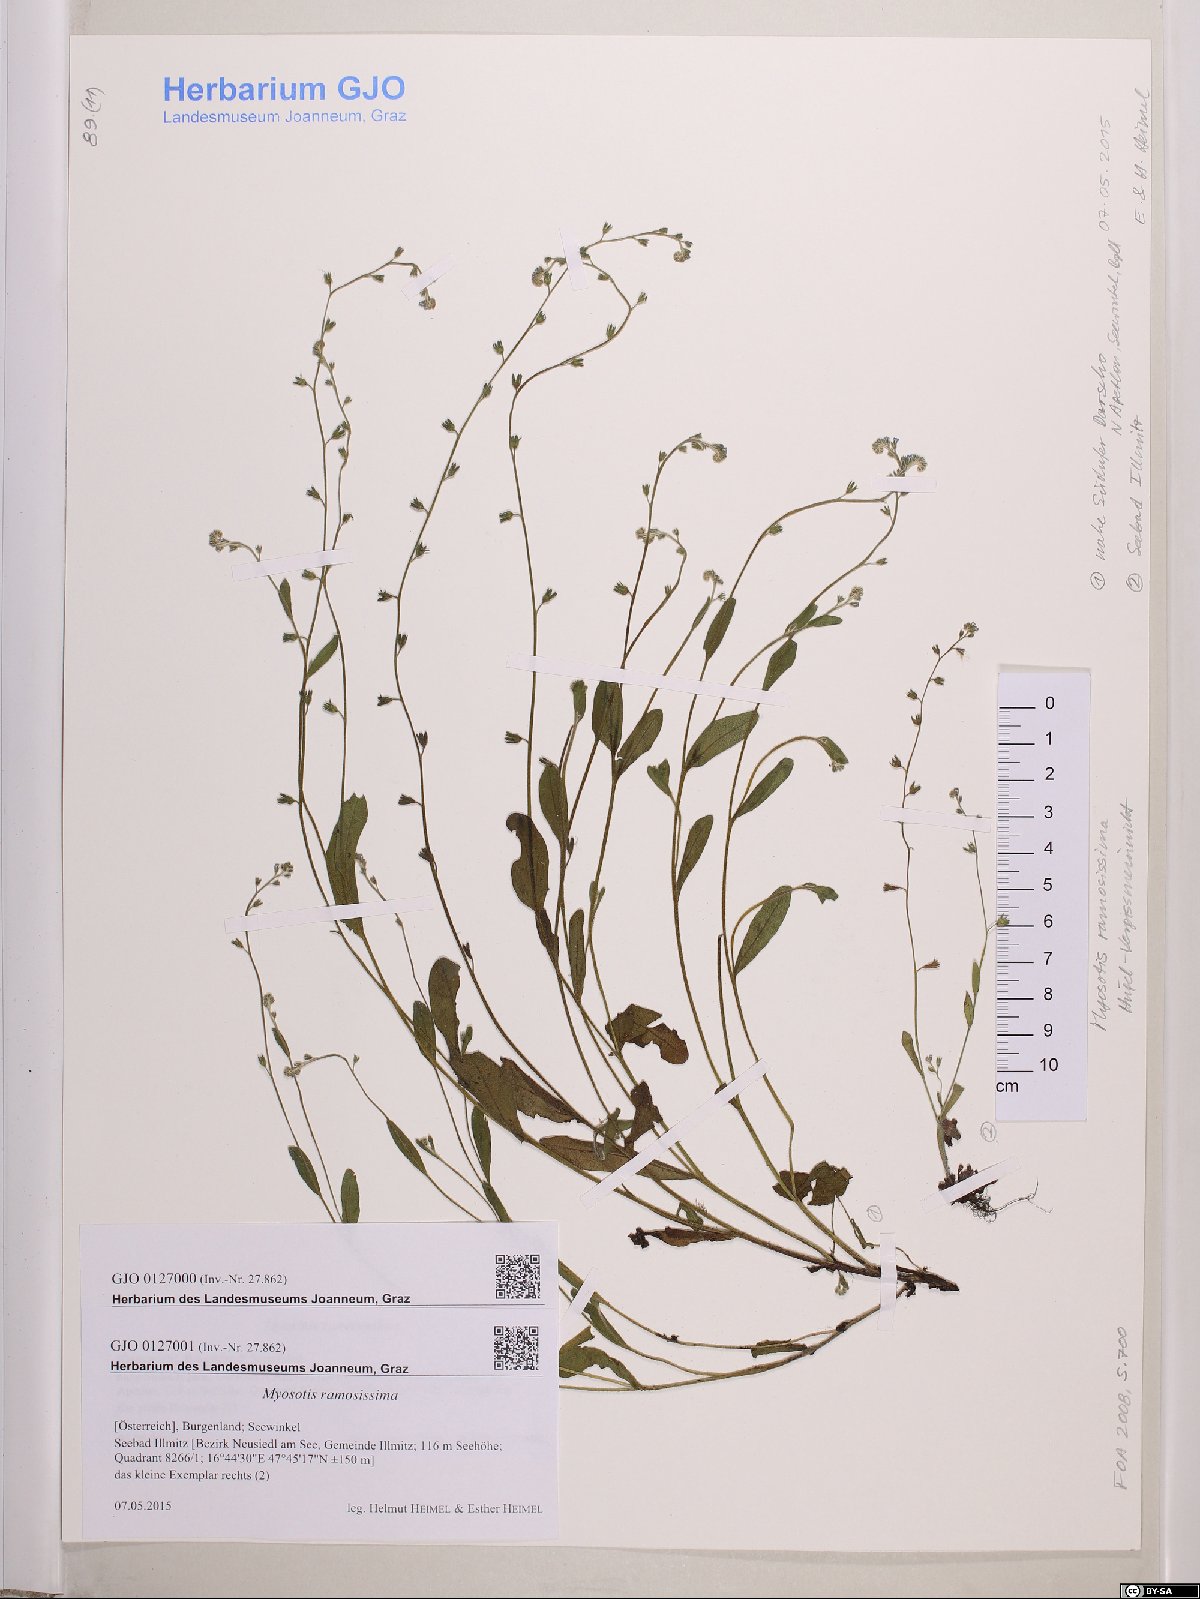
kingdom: Plantae
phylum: Tracheophyta
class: Magnoliopsida
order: Boraginales
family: Boraginaceae
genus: Myosotis
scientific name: Myosotis ramosissima
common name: Early forget-me-not
